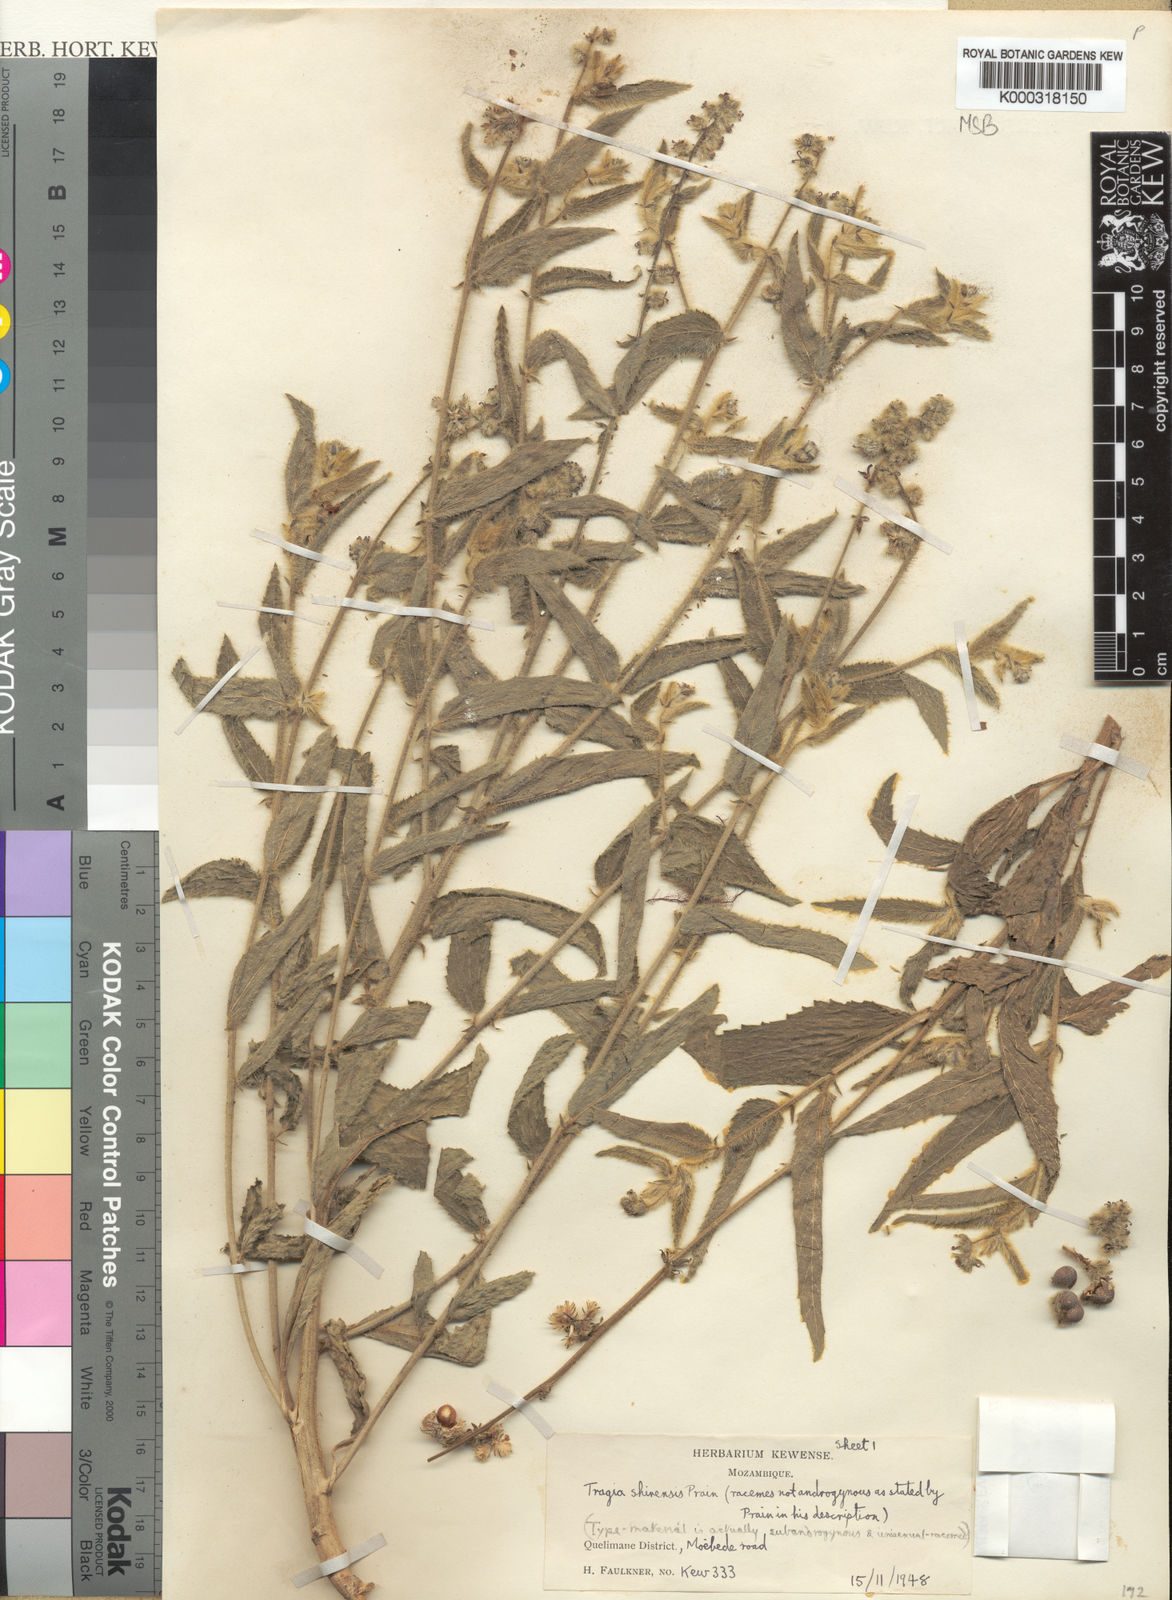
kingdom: Plantae
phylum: Tracheophyta
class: Magnoliopsida
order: Malpighiales
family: Euphorbiaceae
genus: Tragia
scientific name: Tragia shirensis
